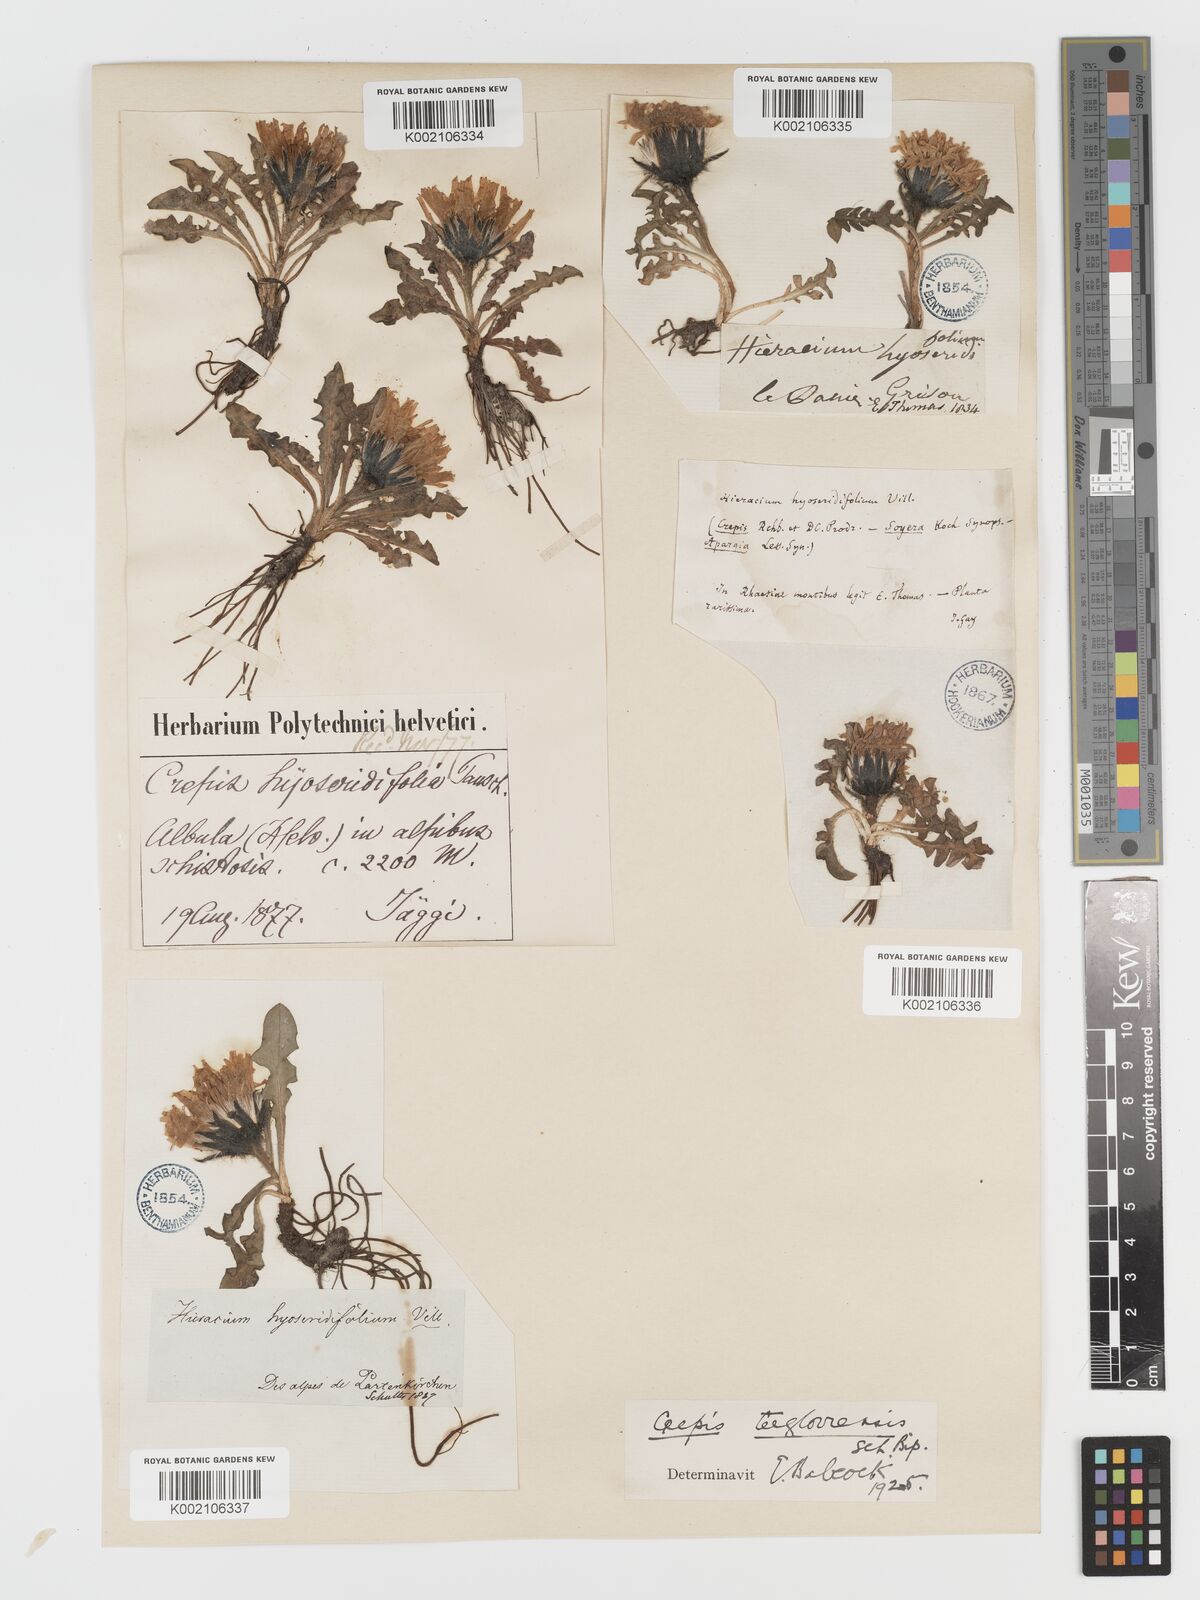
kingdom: Plantae
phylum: Tracheophyta
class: Magnoliopsida
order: Asterales
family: Asteraceae
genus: Crepis
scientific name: Crepis
